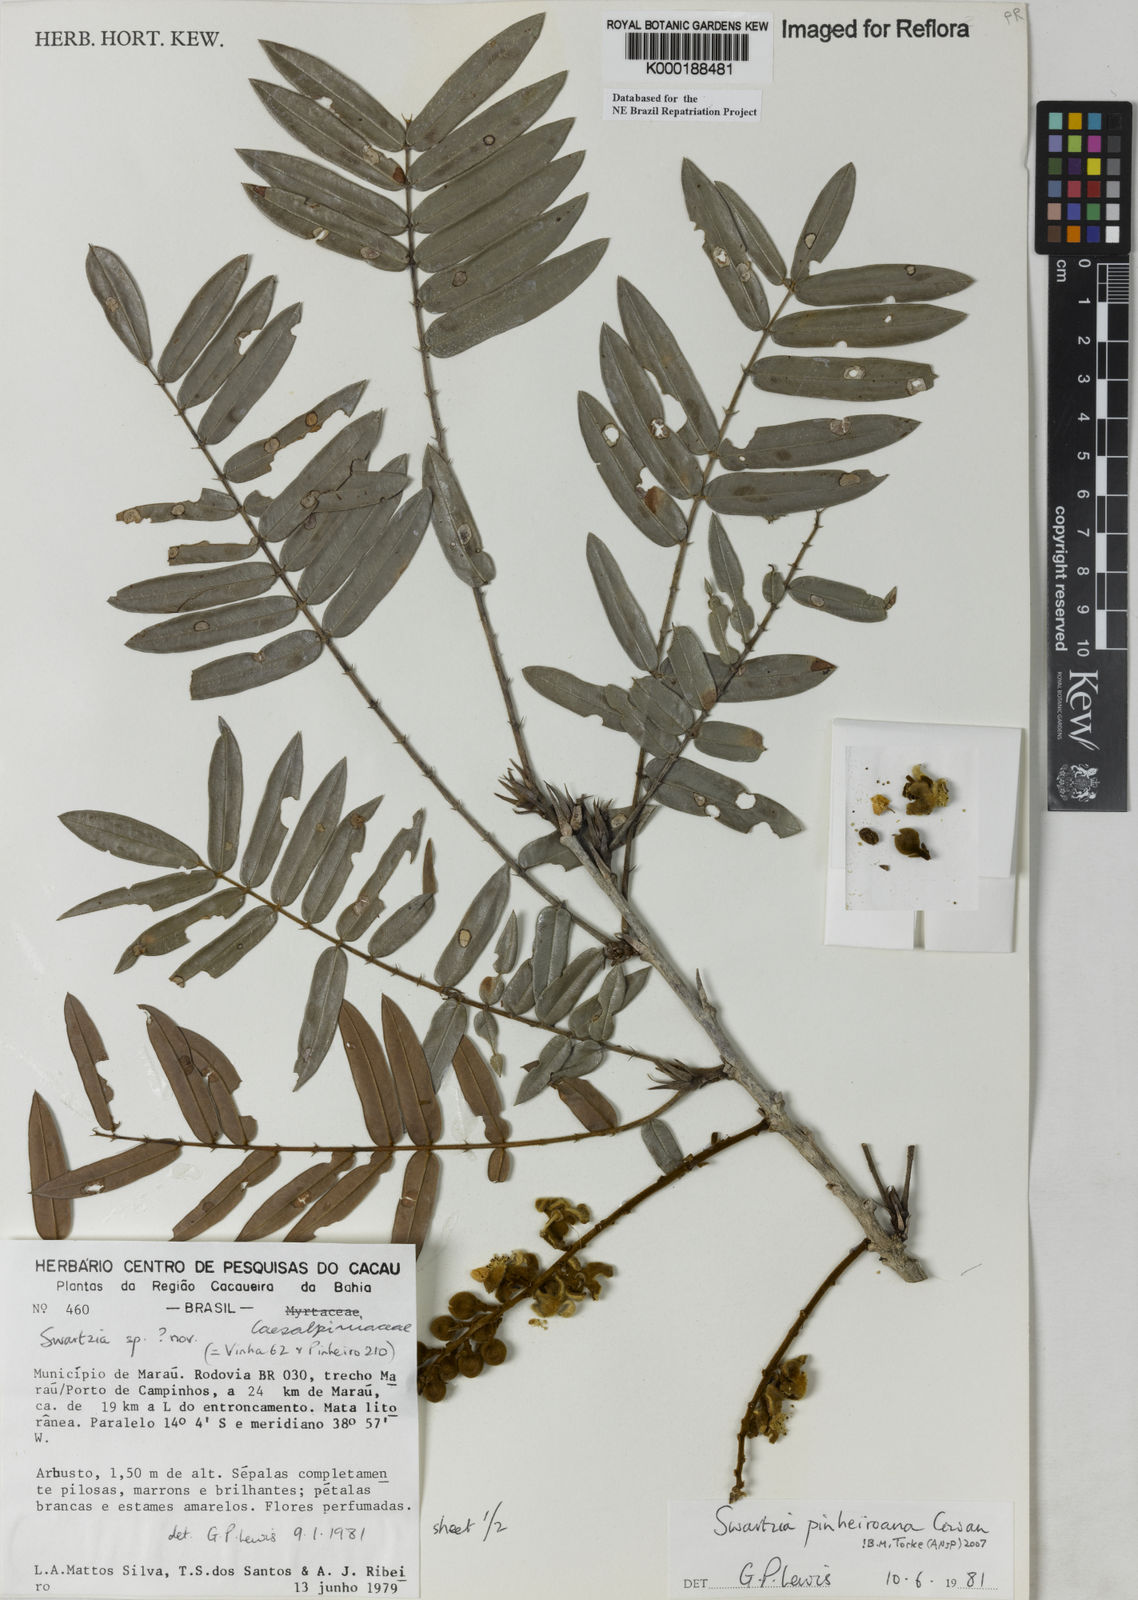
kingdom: Plantae
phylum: Tracheophyta
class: Magnoliopsida
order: Fabales
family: Fabaceae
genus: Swartzia
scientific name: Swartzia pinheiroana
